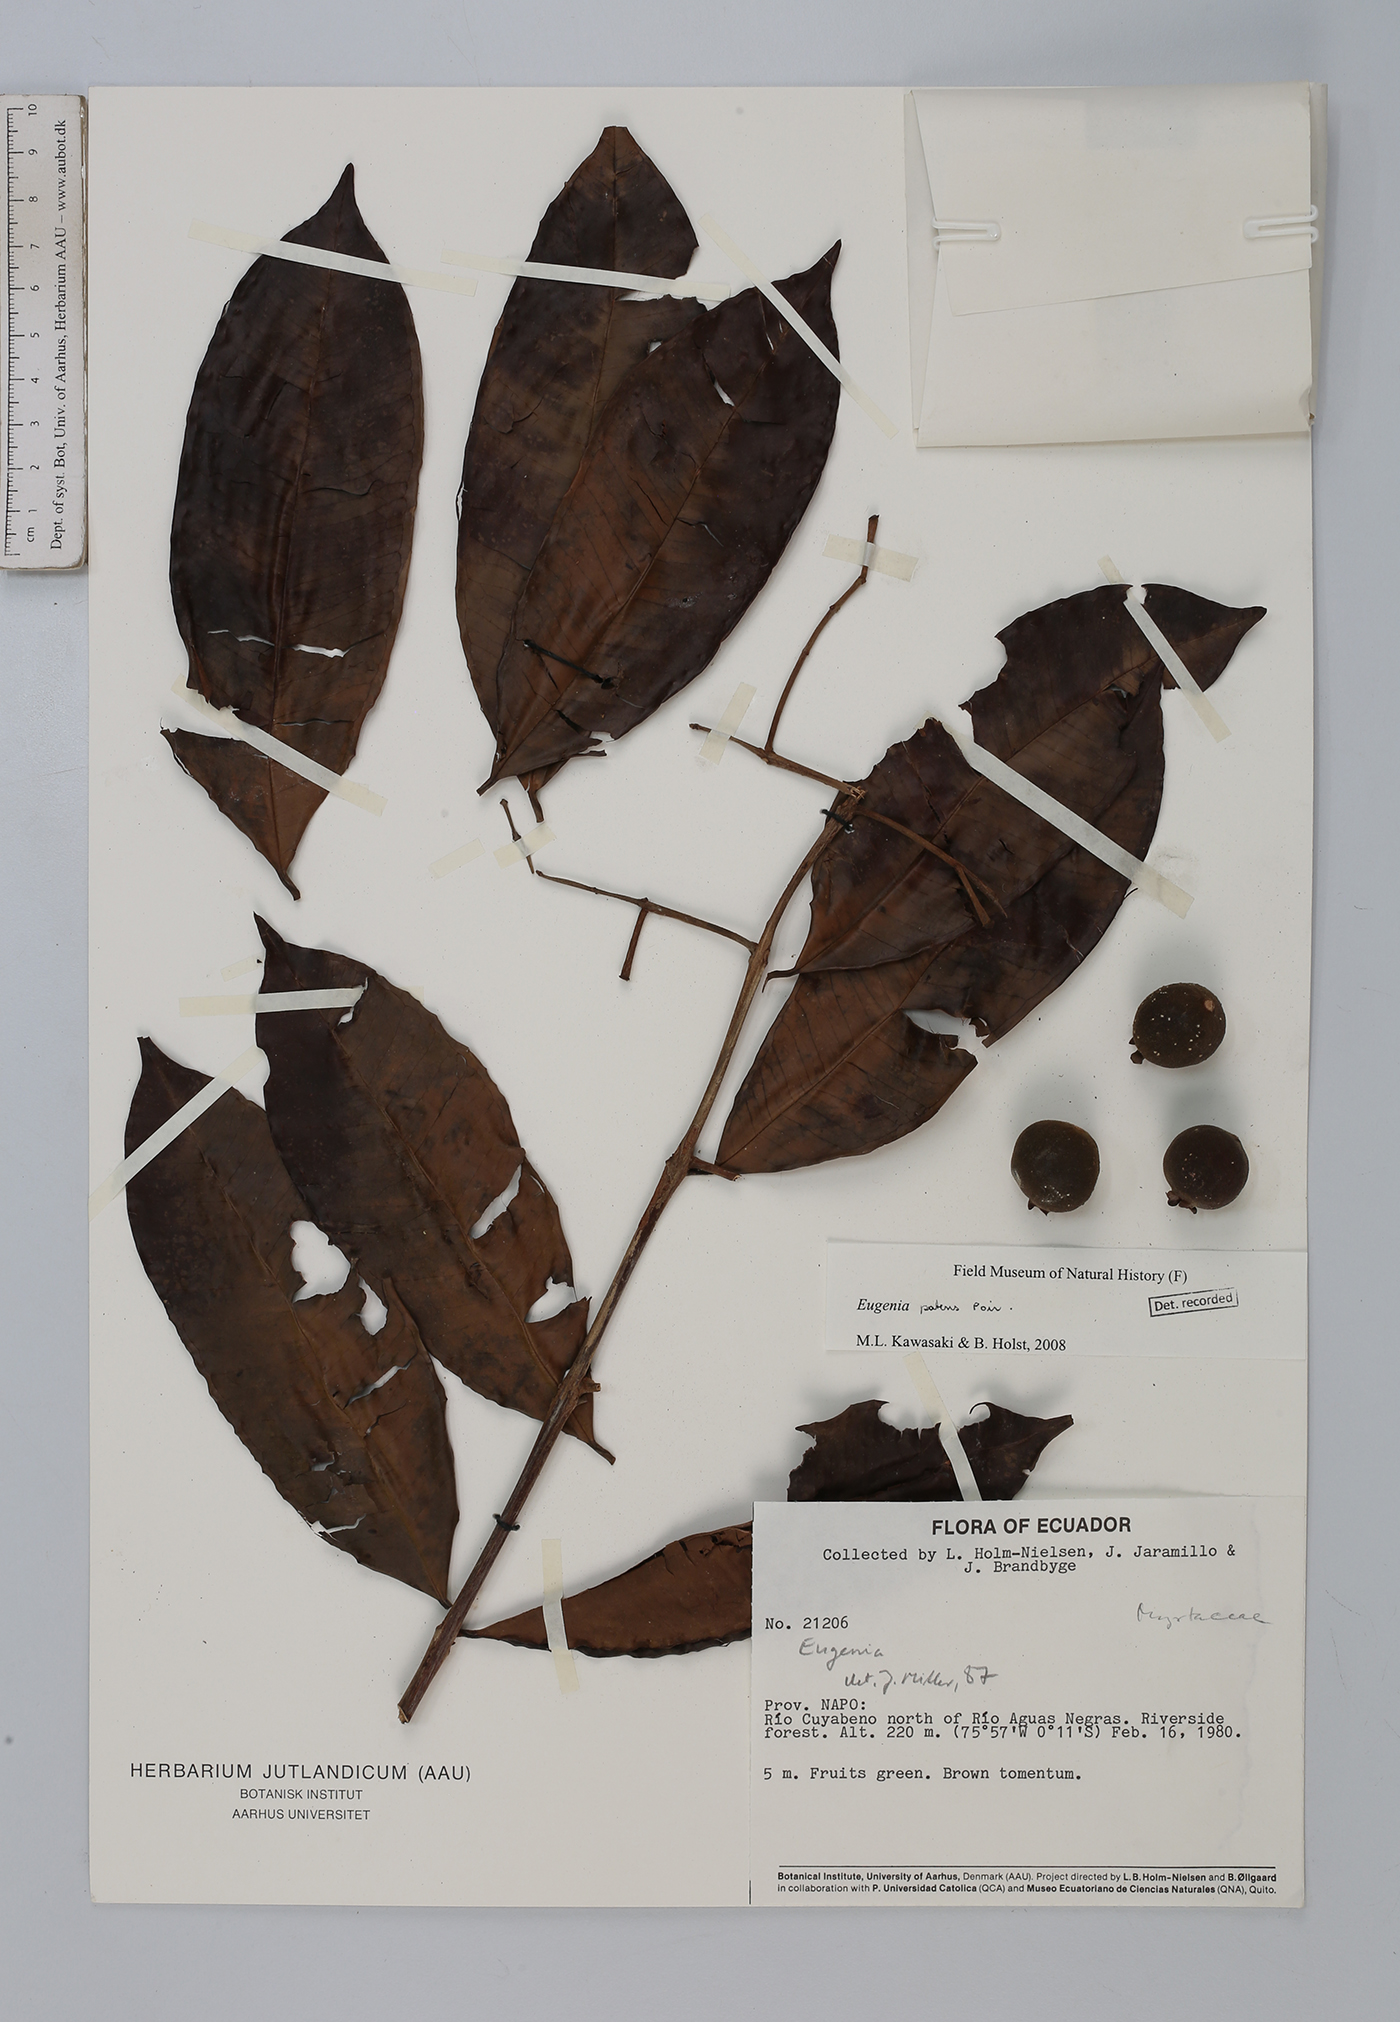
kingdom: Plantae
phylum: Tracheophyta
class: Magnoliopsida
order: Myrtales
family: Myrtaceae
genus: Eugenia
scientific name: Eugenia patens
